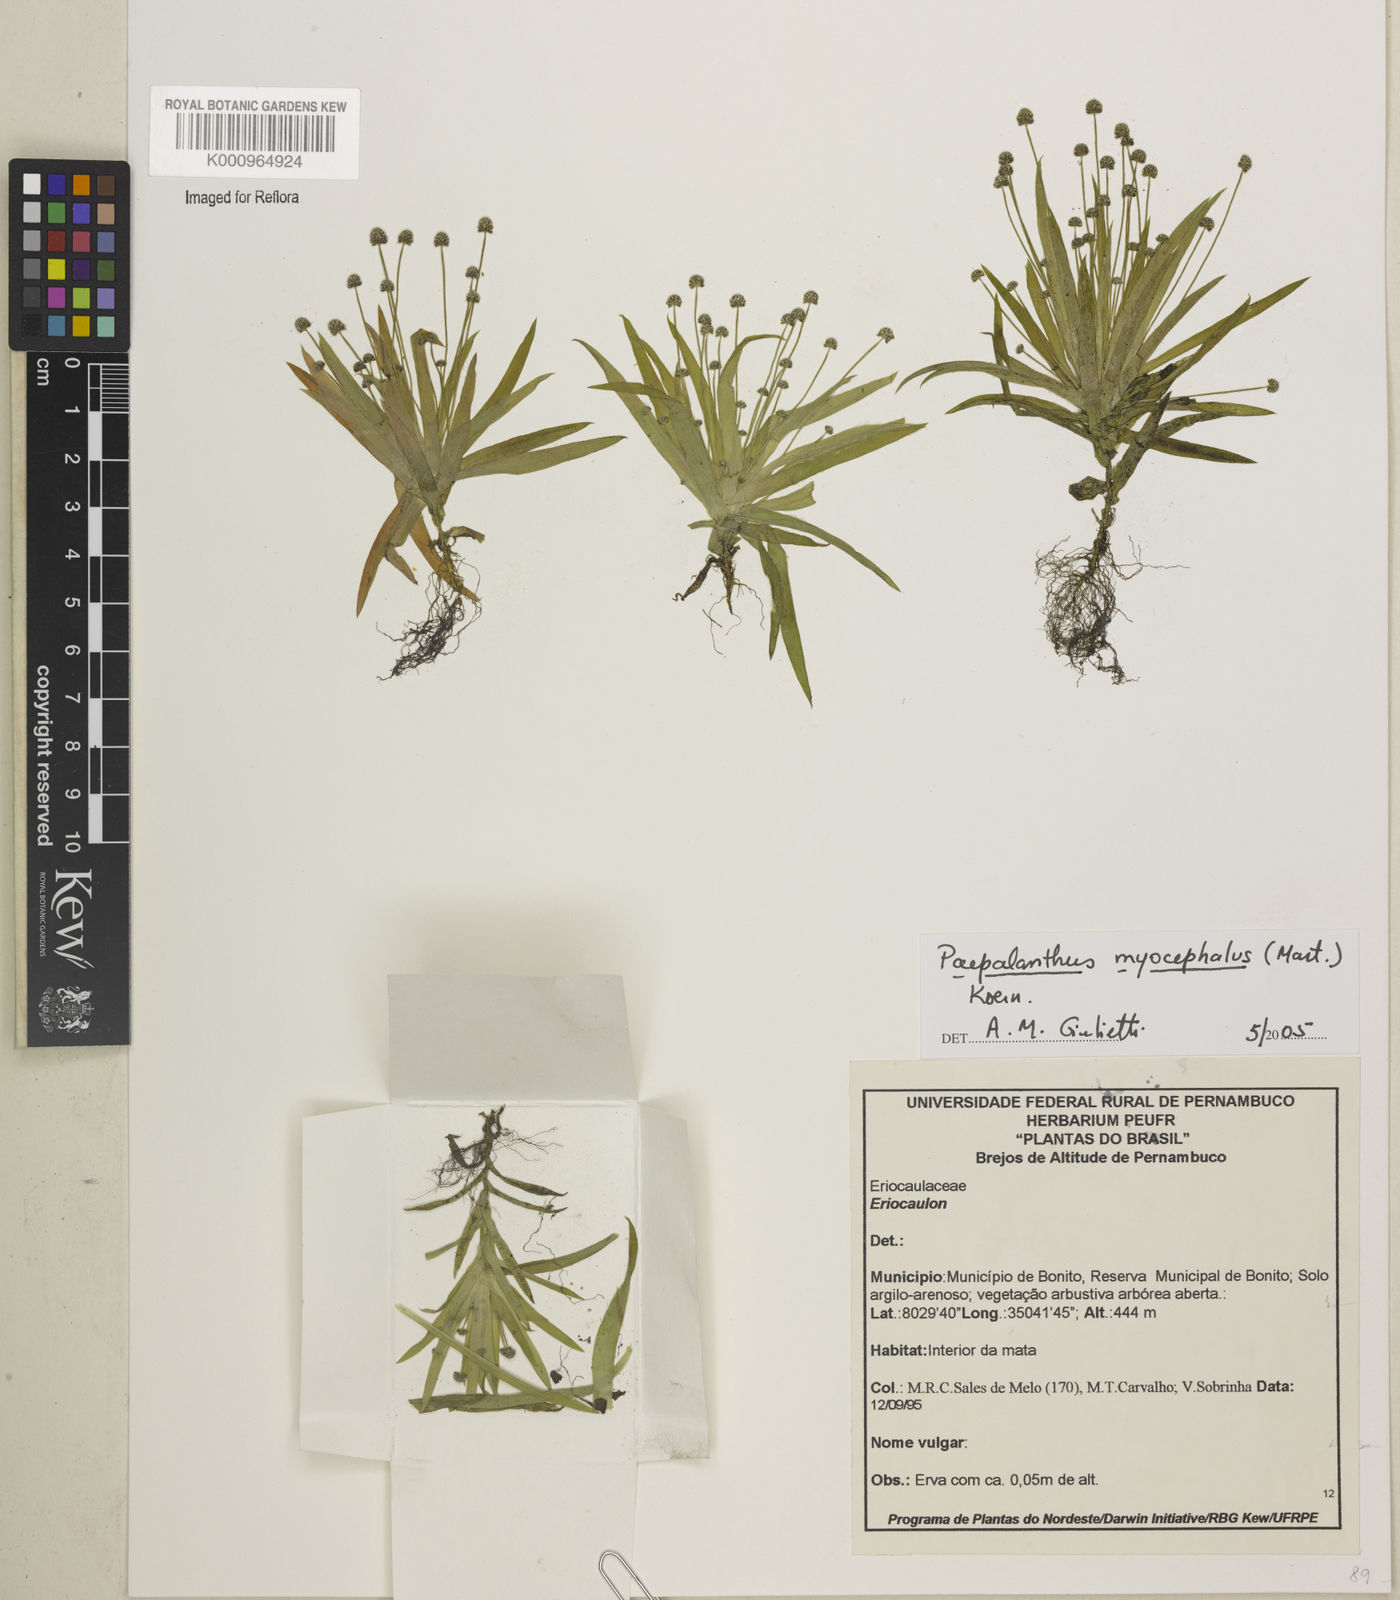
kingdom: Plantae
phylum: Tracheophyta
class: Liliopsida
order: Poales
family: Eriocaulaceae
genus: Paepalanthus
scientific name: Paepalanthus
